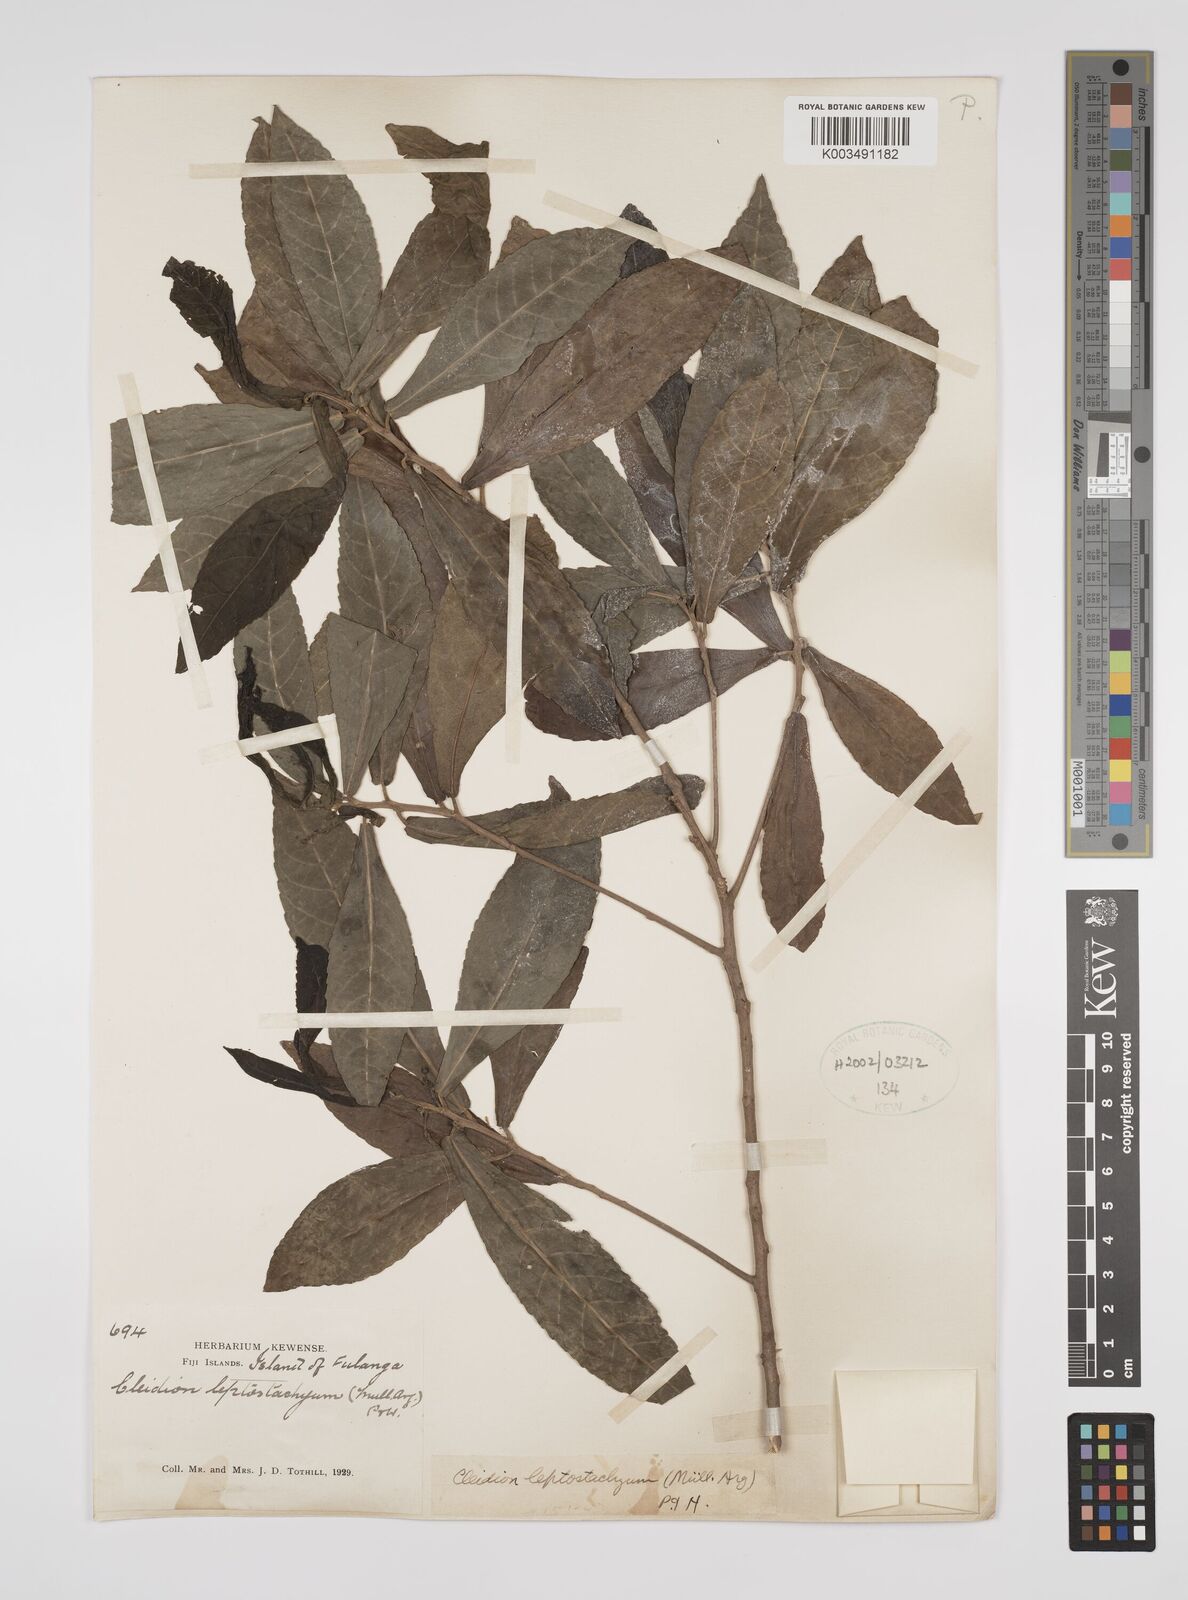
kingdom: Plantae
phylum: Tracheophyta
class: Magnoliopsida
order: Malpighiales
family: Euphorbiaceae
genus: Cleidion
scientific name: Cleidion leptostachyum
